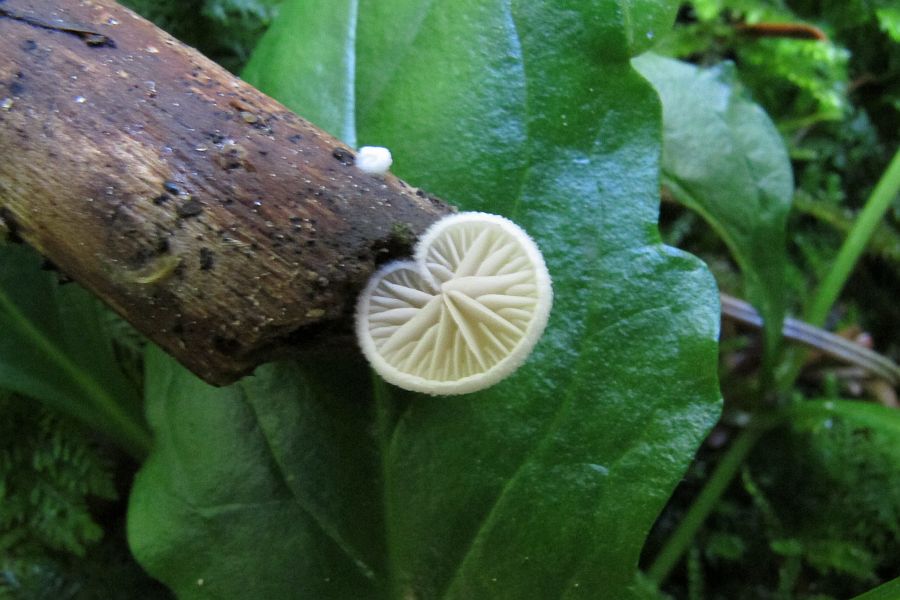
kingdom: Fungi
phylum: Basidiomycota
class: Agaricomycetes
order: Agaricales
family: Crepidotaceae
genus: Crepidotus
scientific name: Crepidotus cesatii
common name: almindelig muslingesvamp
